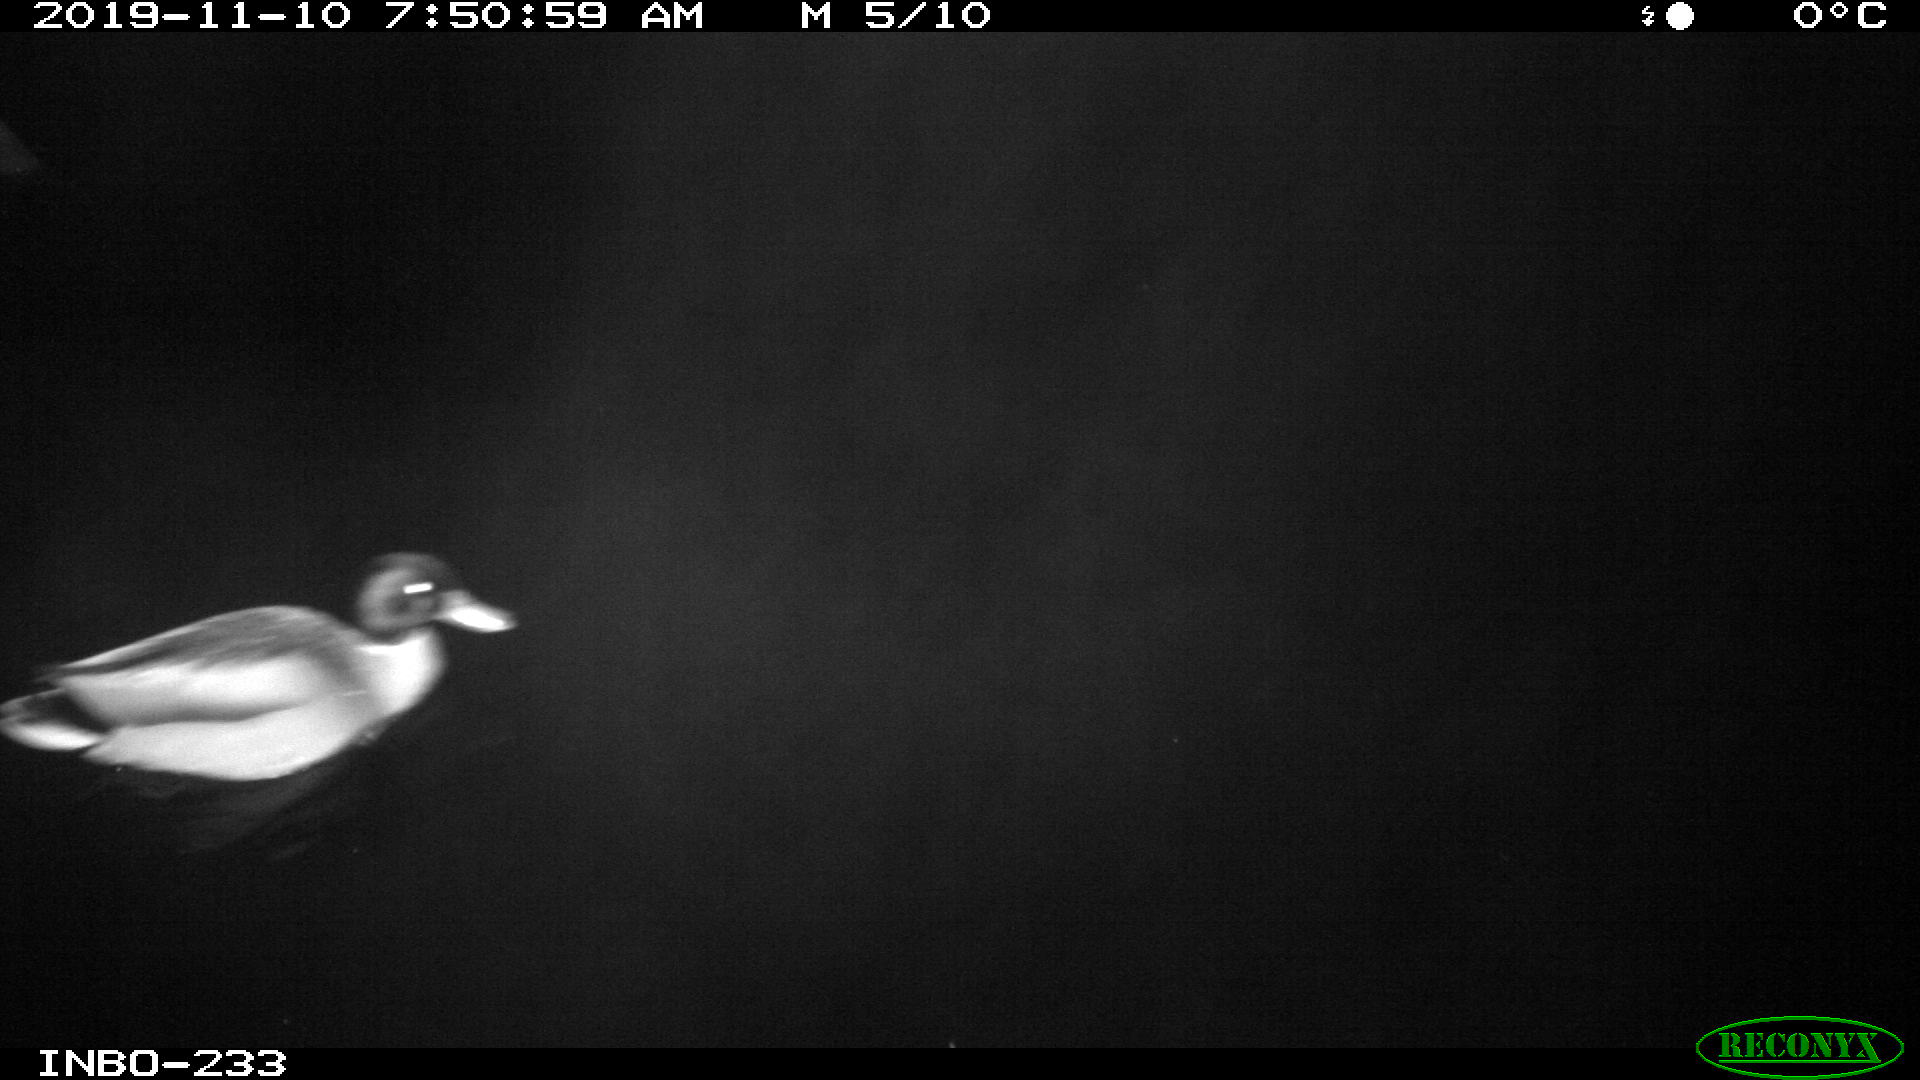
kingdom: Animalia
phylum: Chordata
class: Aves
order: Anseriformes
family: Anatidae
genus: Anas
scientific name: Anas platyrhynchos
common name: Mallard
